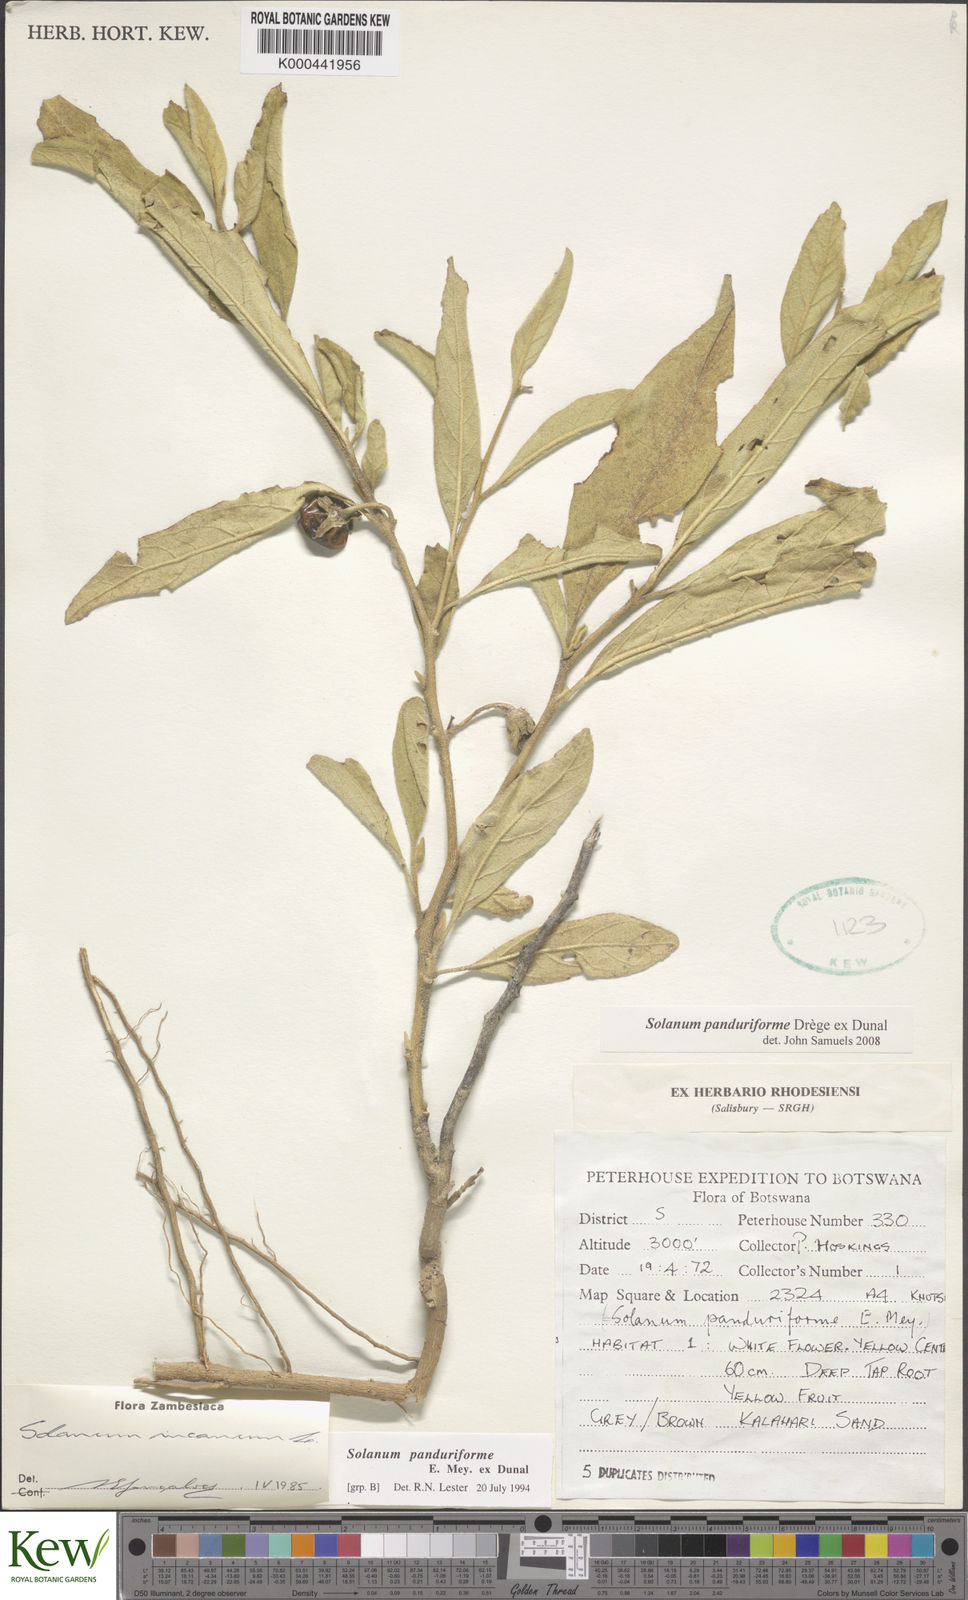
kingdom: Plantae
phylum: Tracheophyta
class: Magnoliopsida
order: Solanales
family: Solanaceae
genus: Solanum
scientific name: Solanum campylacanthum
